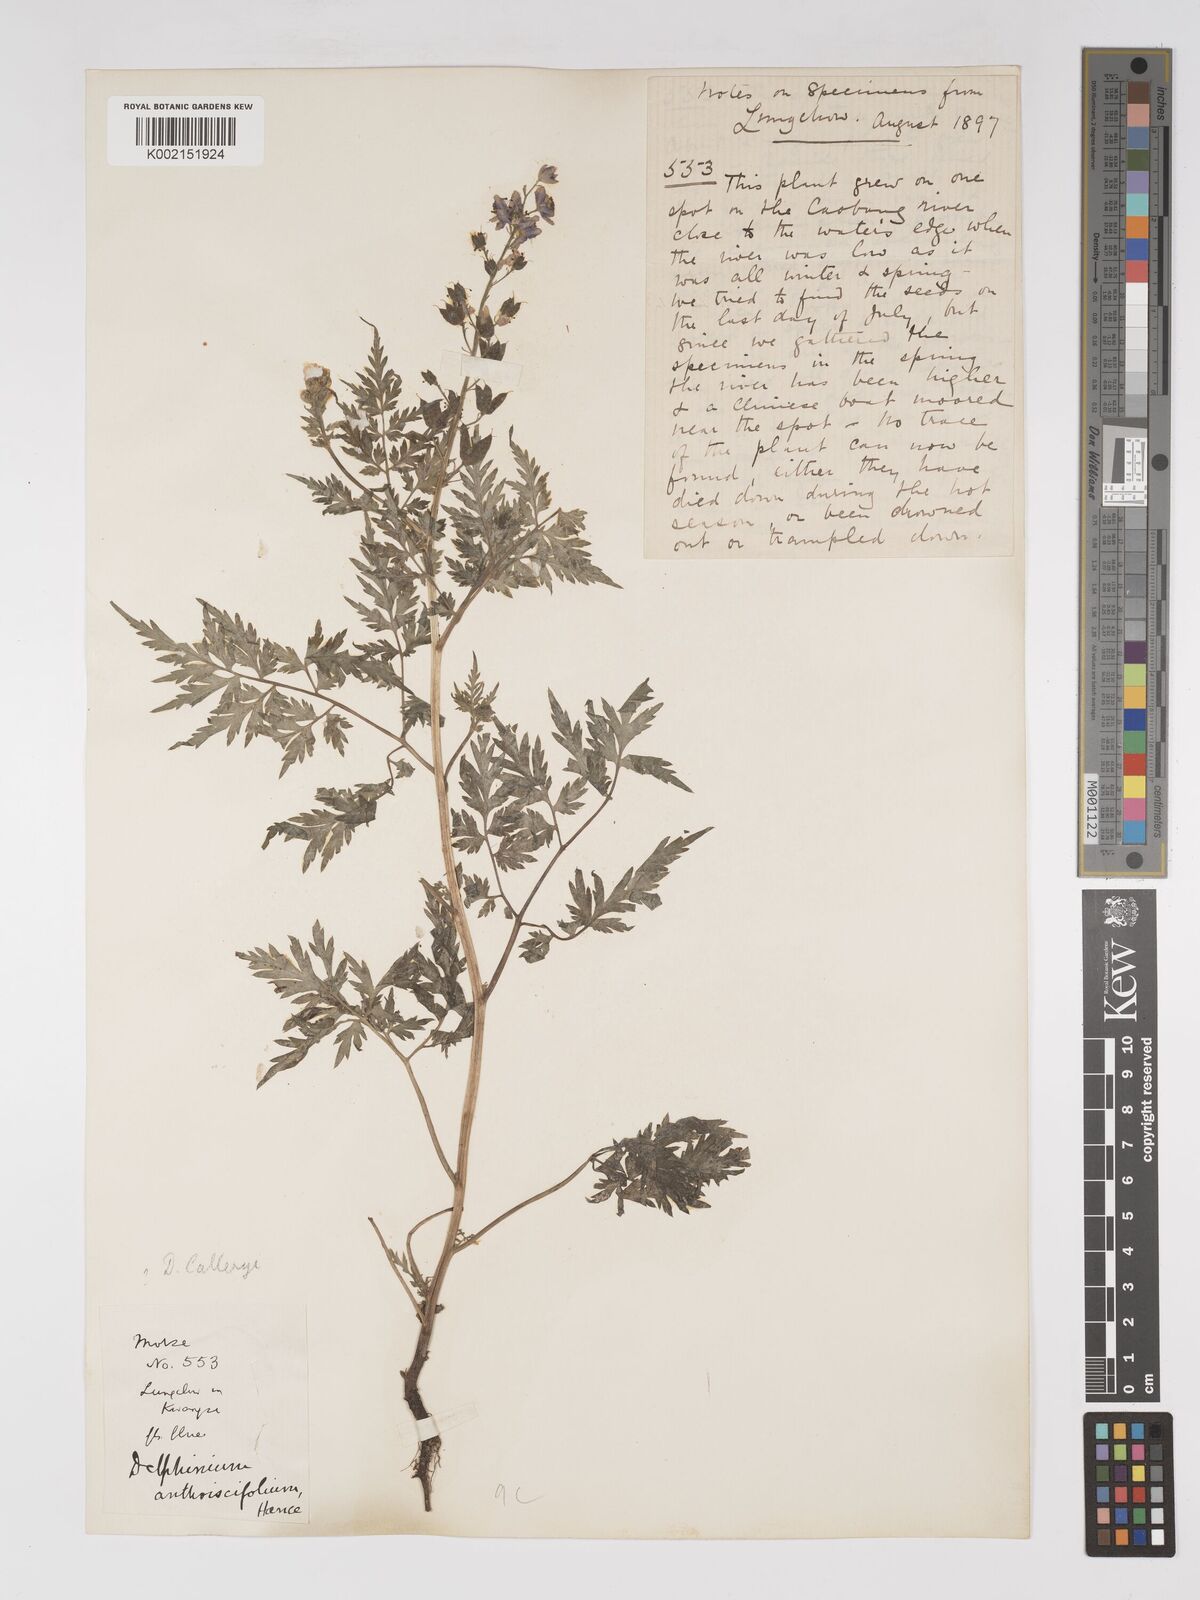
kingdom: Plantae
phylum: Tracheophyta
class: Magnoliopsida
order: Ranunculales
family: Ranunculaceae
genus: Delphinium
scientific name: Delphinium anthriscifolium
